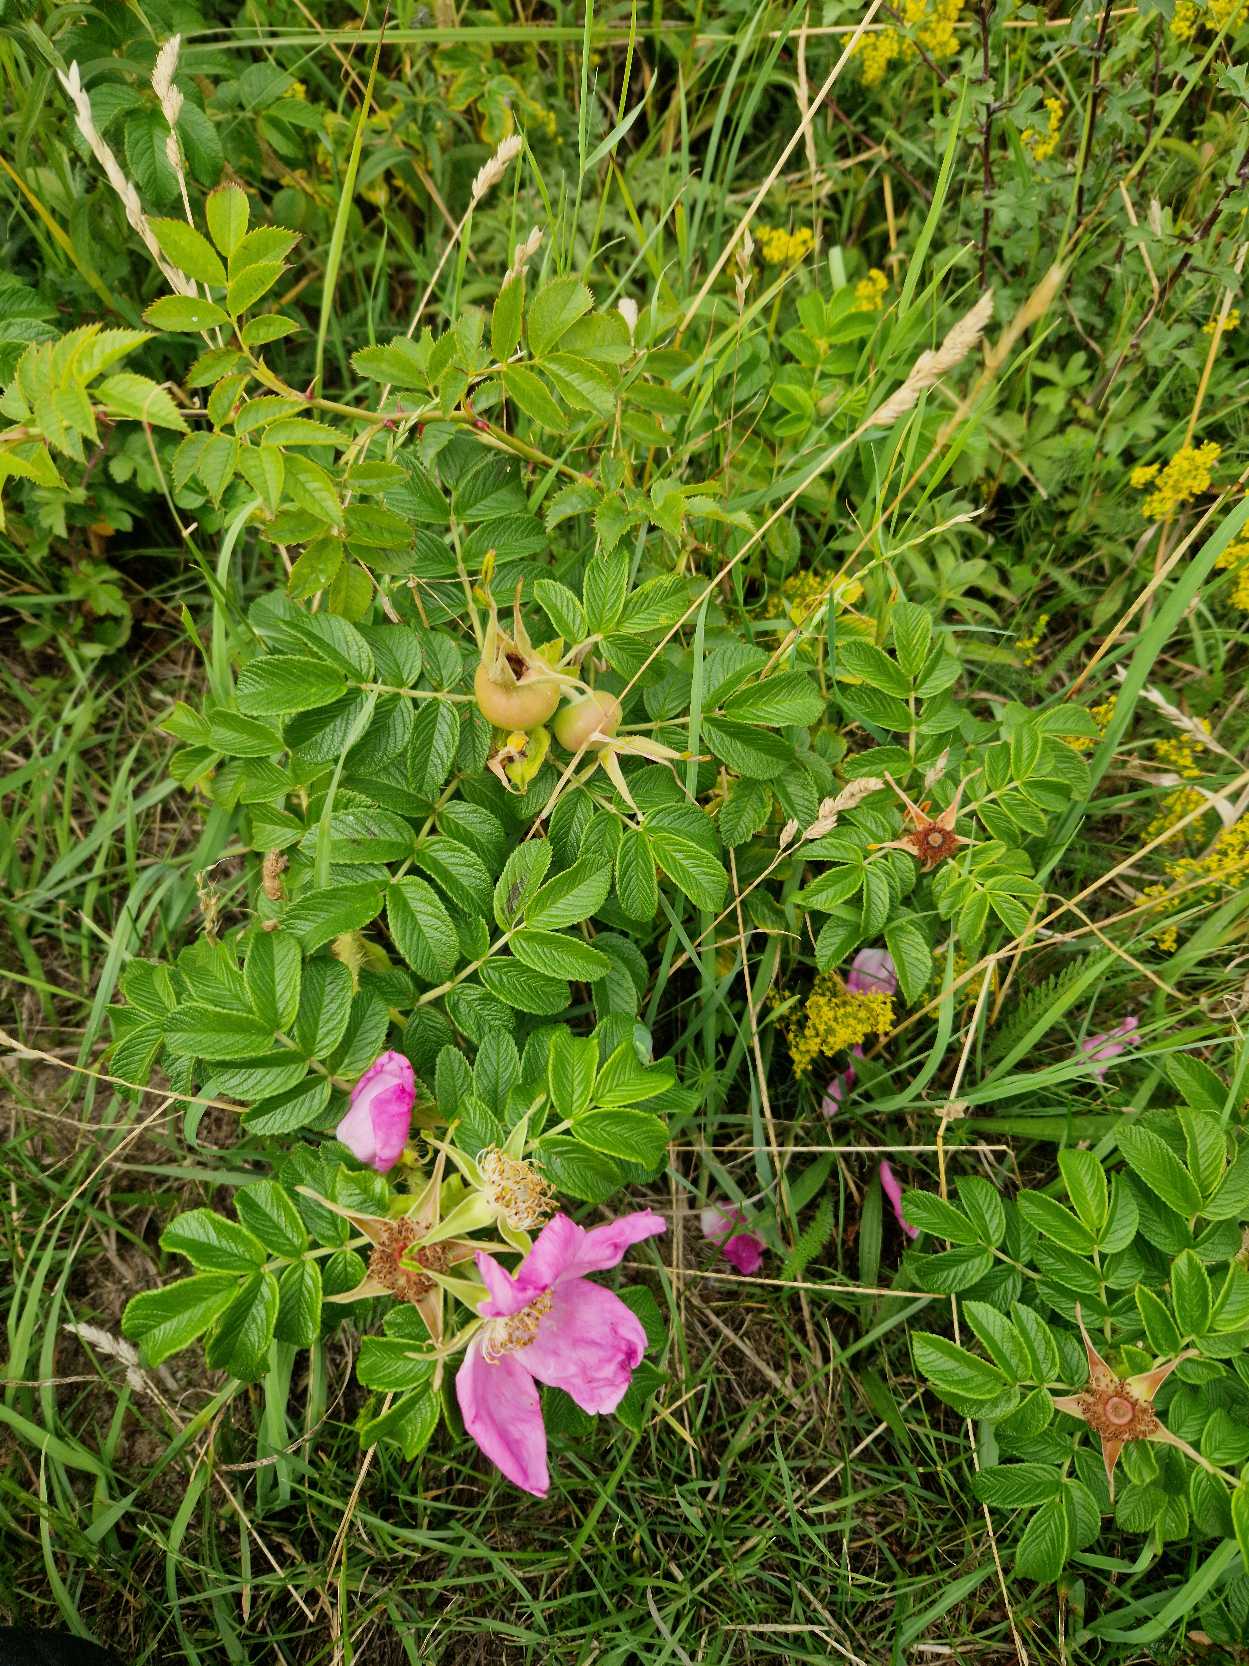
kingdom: Plantae
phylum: Tracheophyta
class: Magnoliopsida
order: Rosales
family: Rosaceae
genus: Rosa
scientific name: Rosa rugosa
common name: Rynket rose
